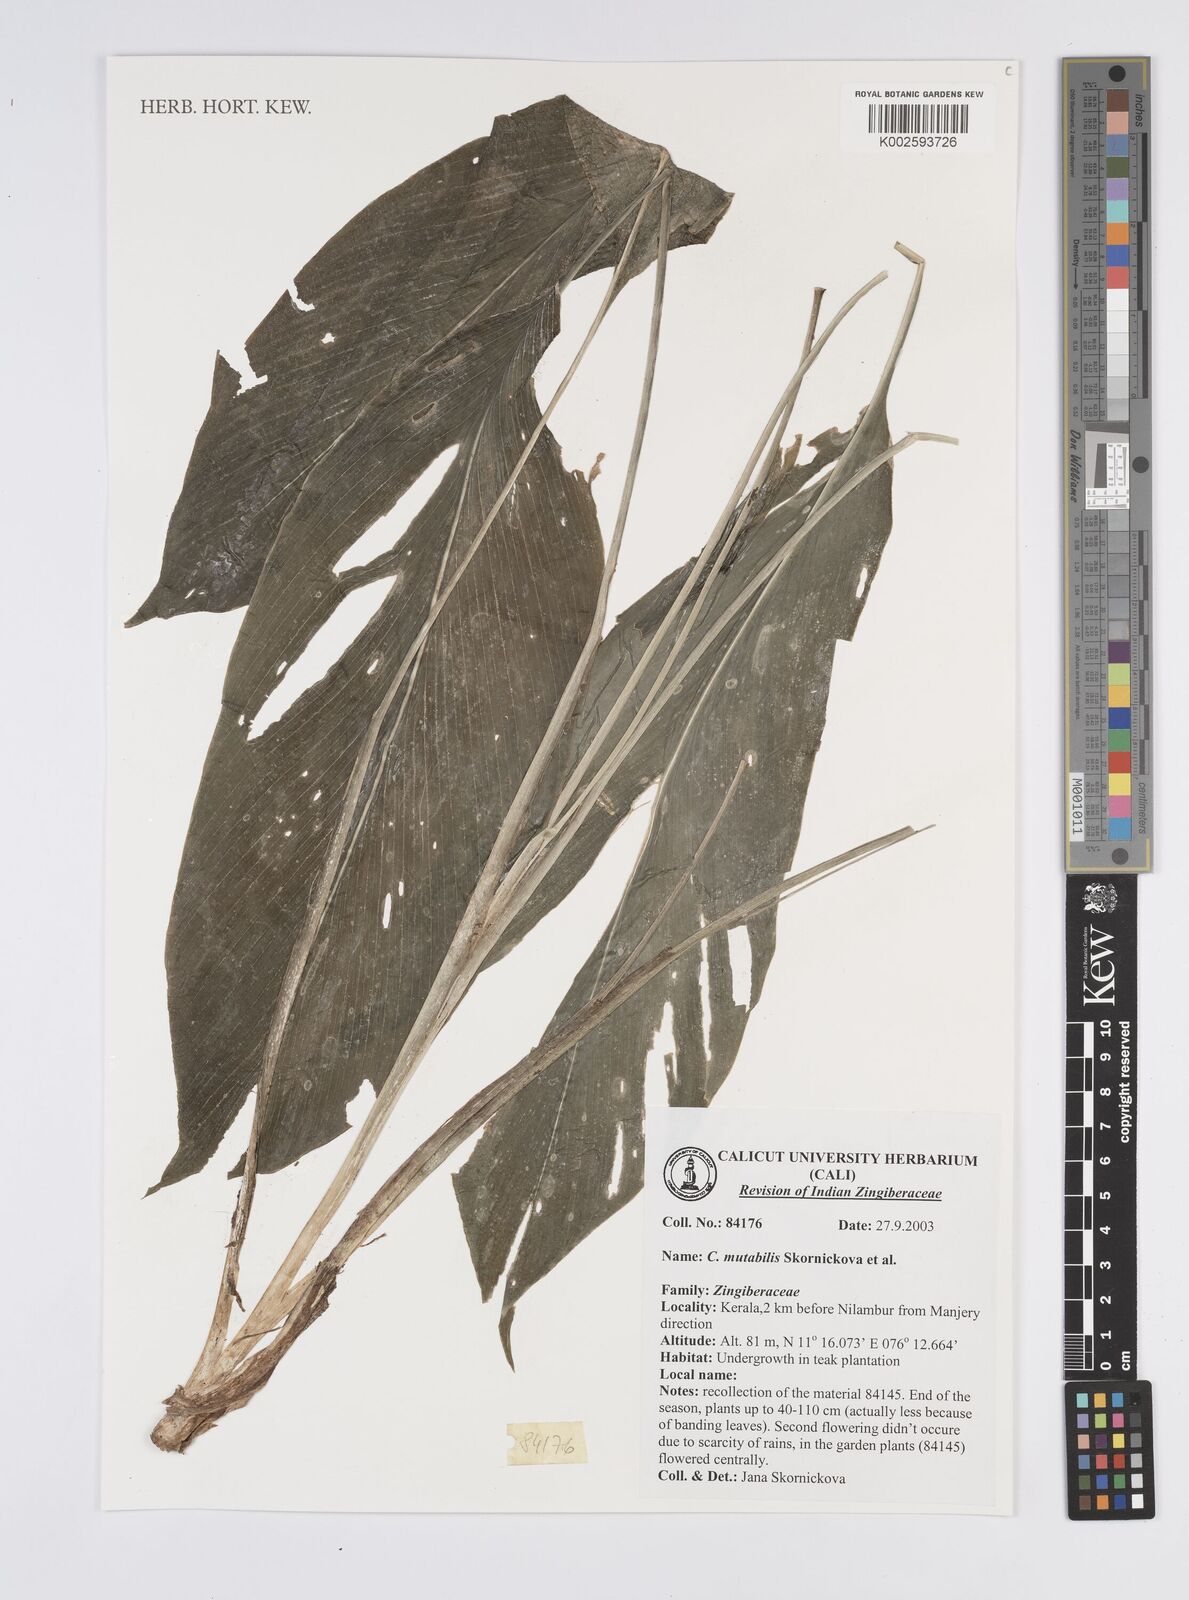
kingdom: Plantae
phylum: Tracheophyta
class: Liliopsida
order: Zingiberales
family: Zingiberaceae
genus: Curcuma
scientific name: Curcuma mutabilis
